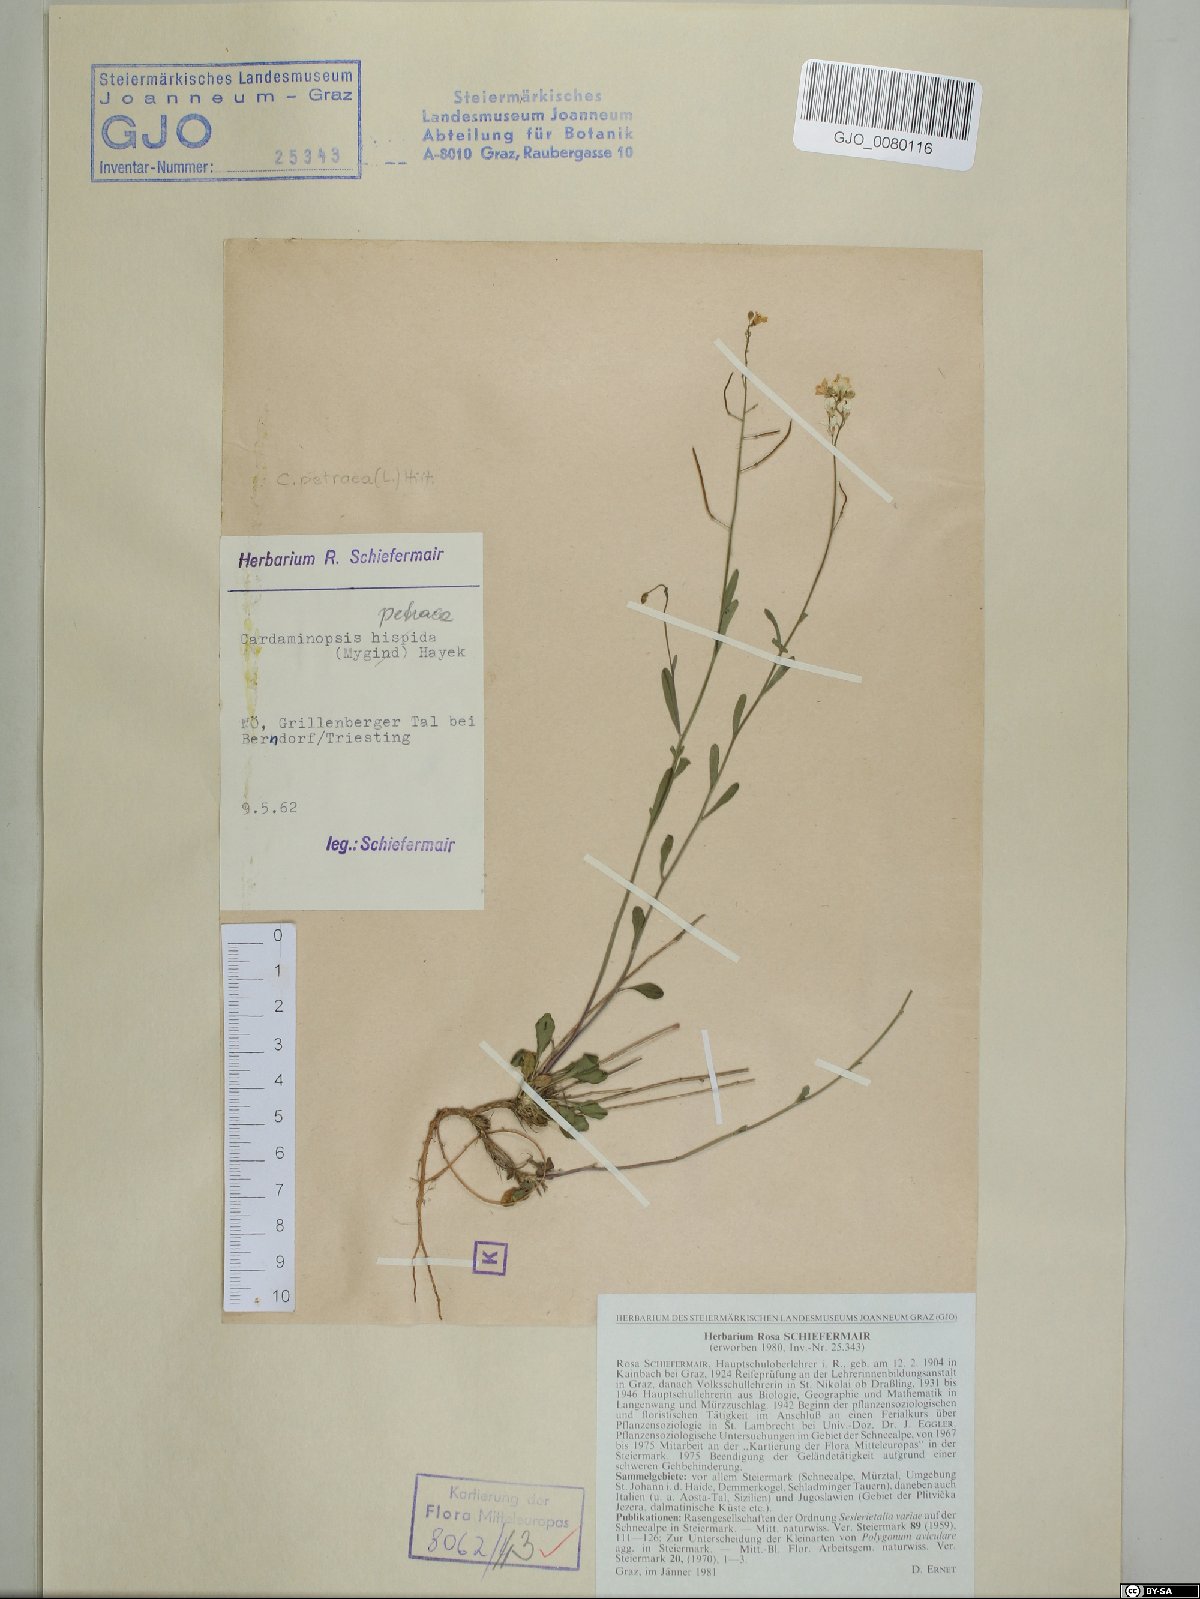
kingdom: Plantae
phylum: Tracheophyta
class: Magnoliopsida
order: Brassicales
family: Brassicaceae
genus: Arabidopsis
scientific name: Arabidopsis lyrata
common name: Lyrate rockcress
